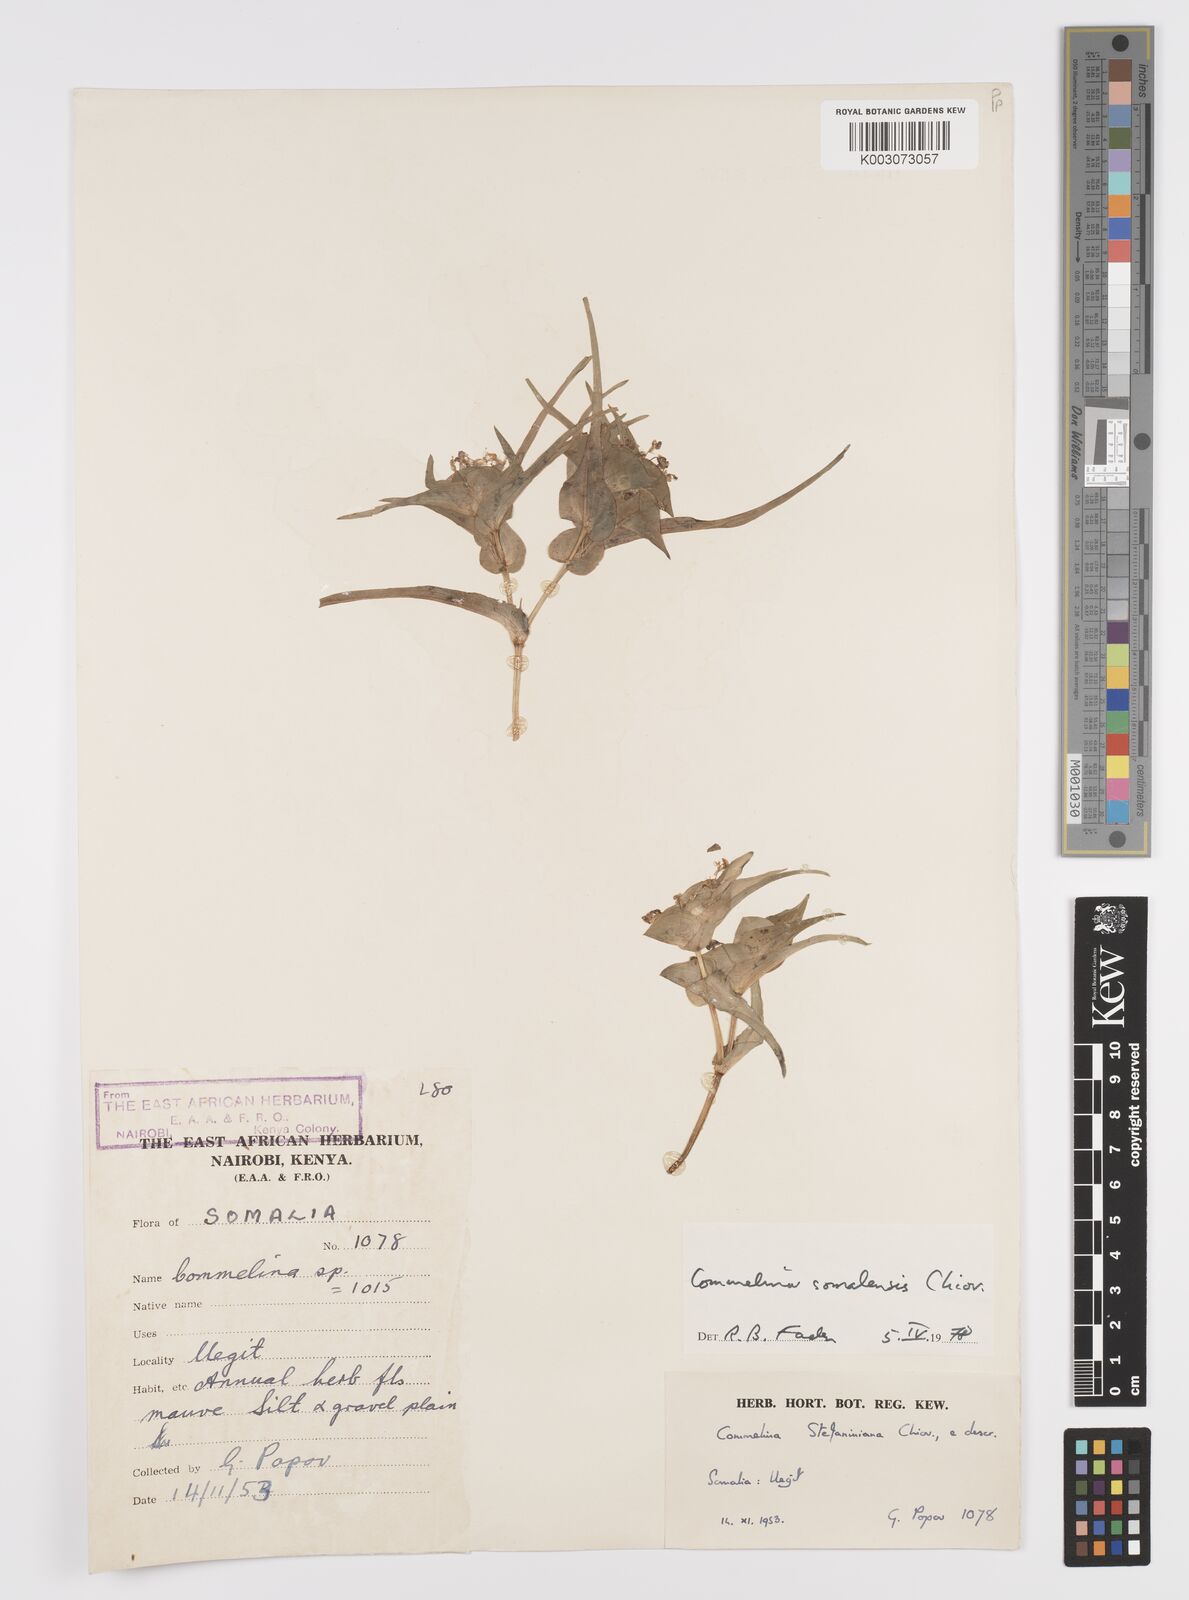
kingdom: Plantae
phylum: Tracheophyta
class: Liliopsida
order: Commelinales
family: Commelinaceae
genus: Commelina
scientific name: Commelina somalensis
